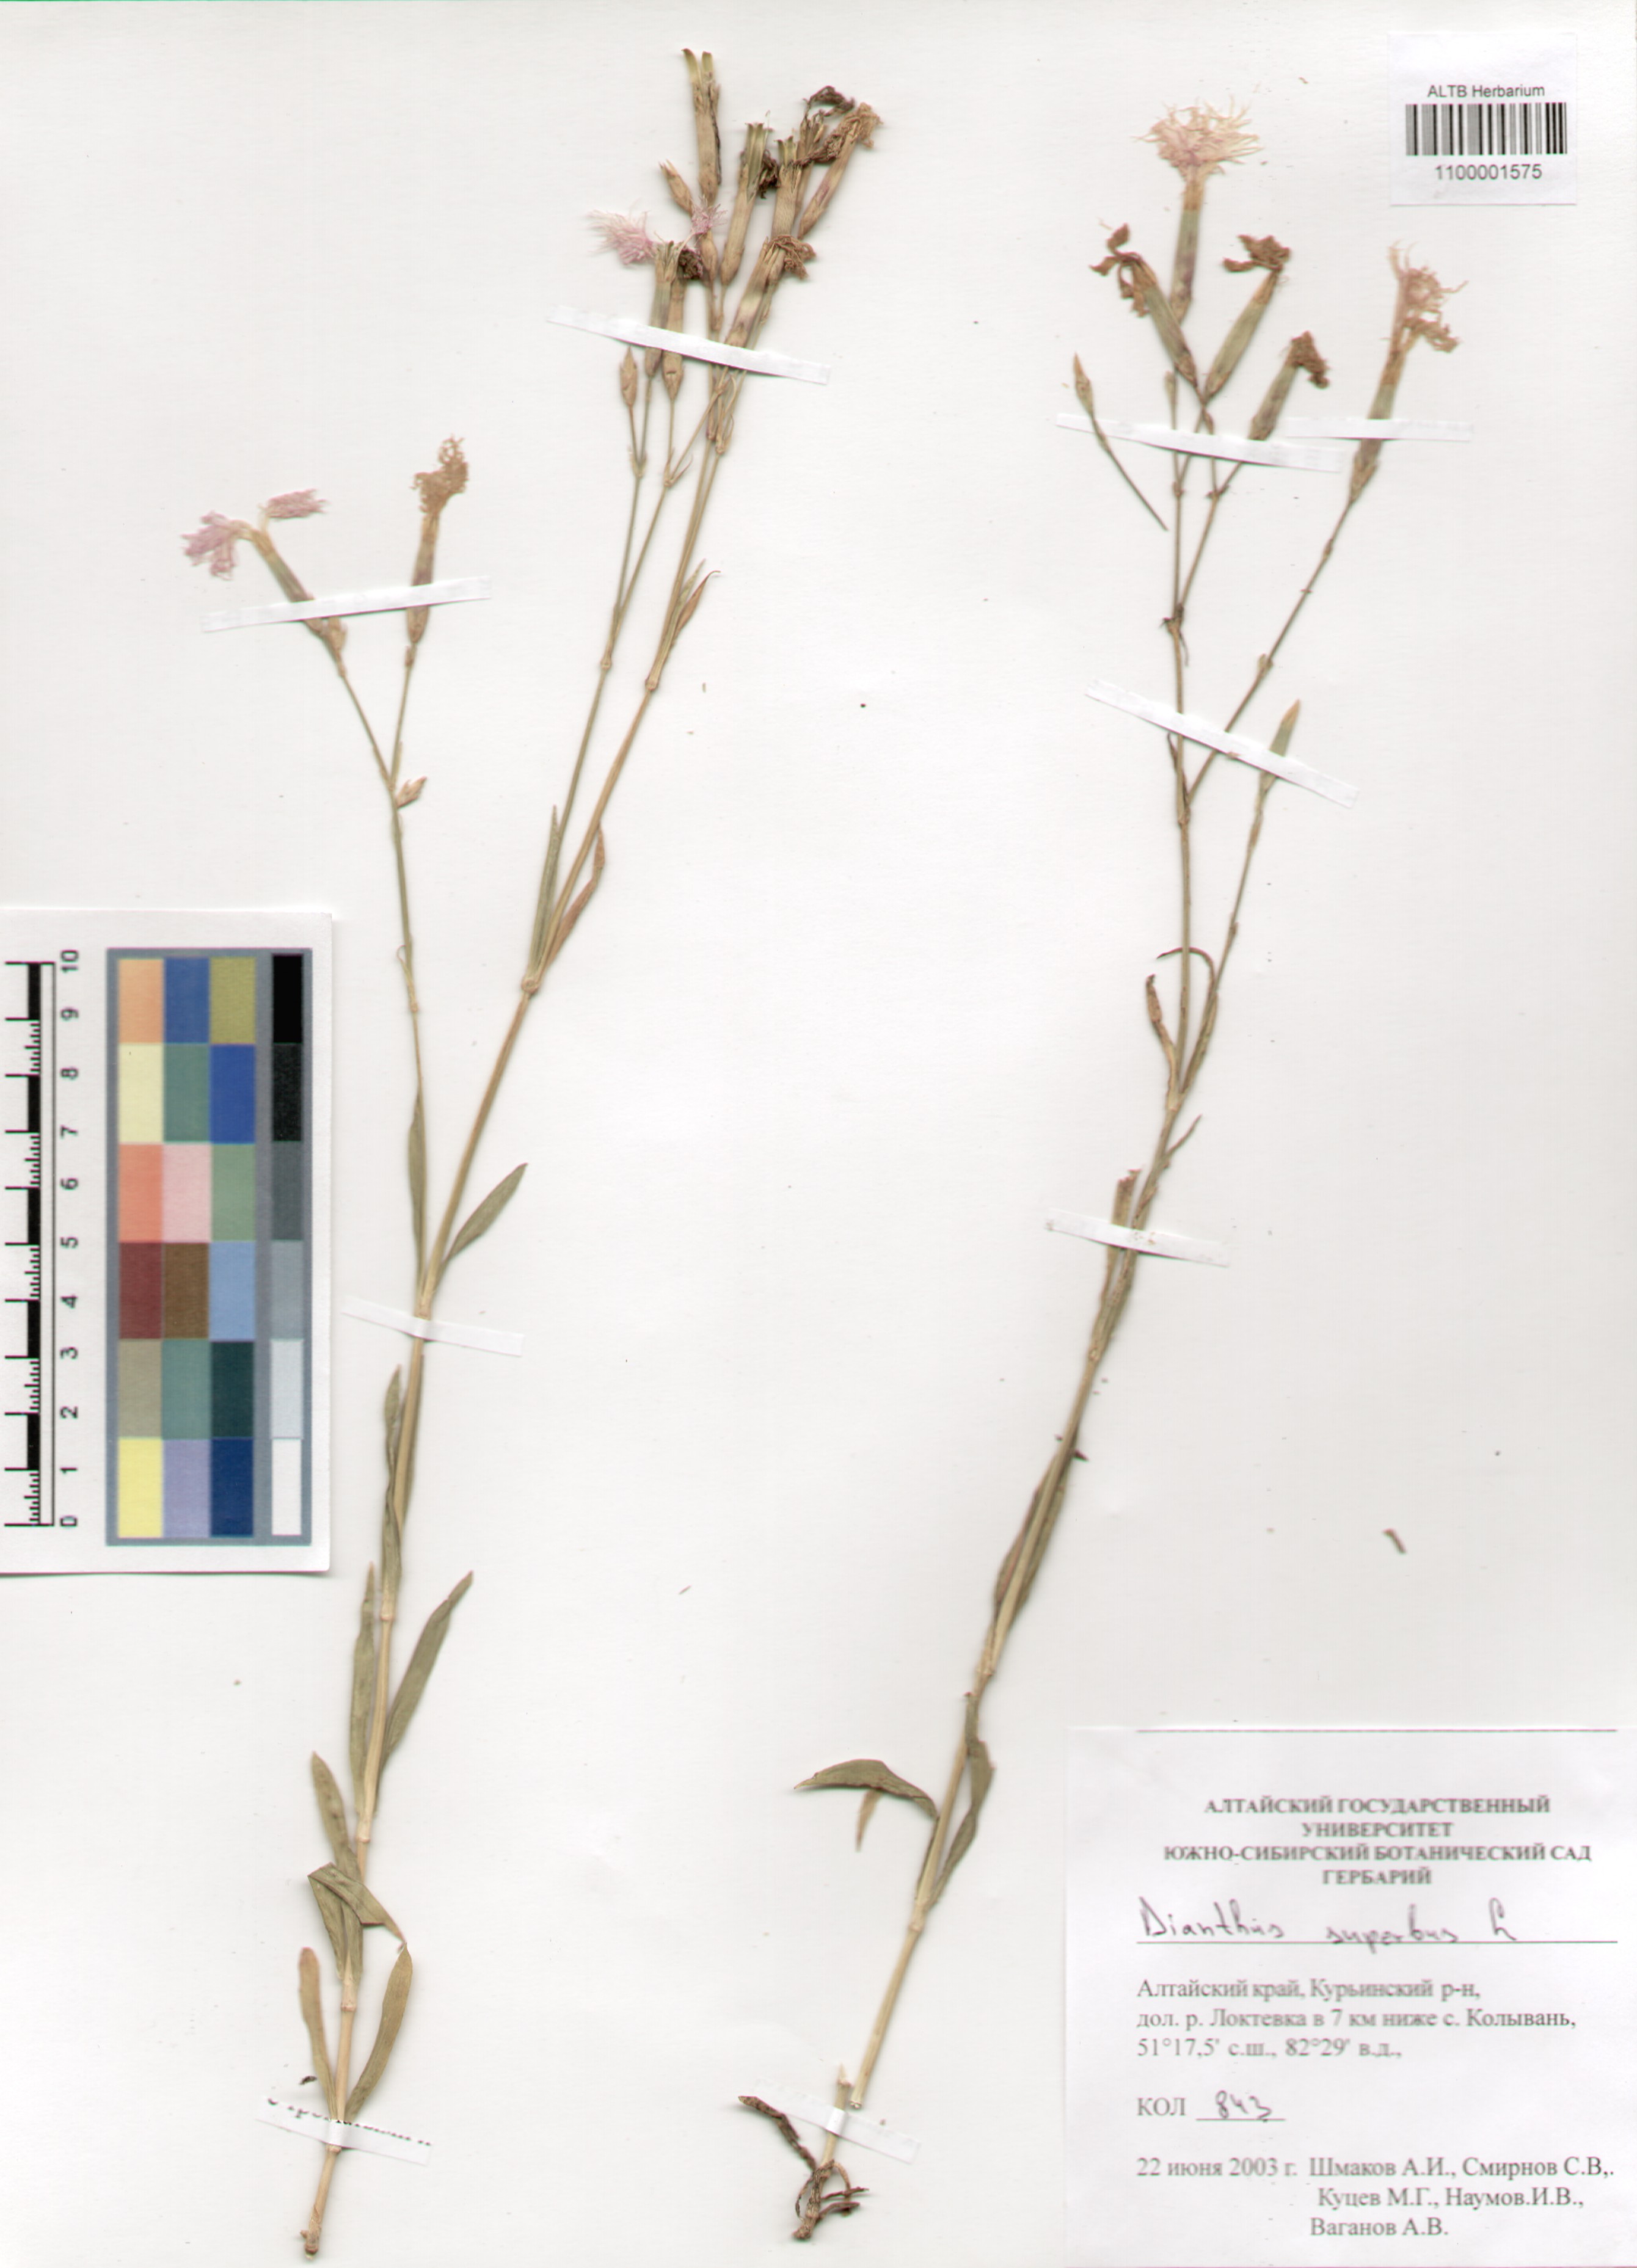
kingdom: Plantae
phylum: Tracheophyta
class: Magnoliopsida
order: Caryophyllales
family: Caryophyllaceae
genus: Dianthus
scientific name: Dianthus superbus
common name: Fringed pink
